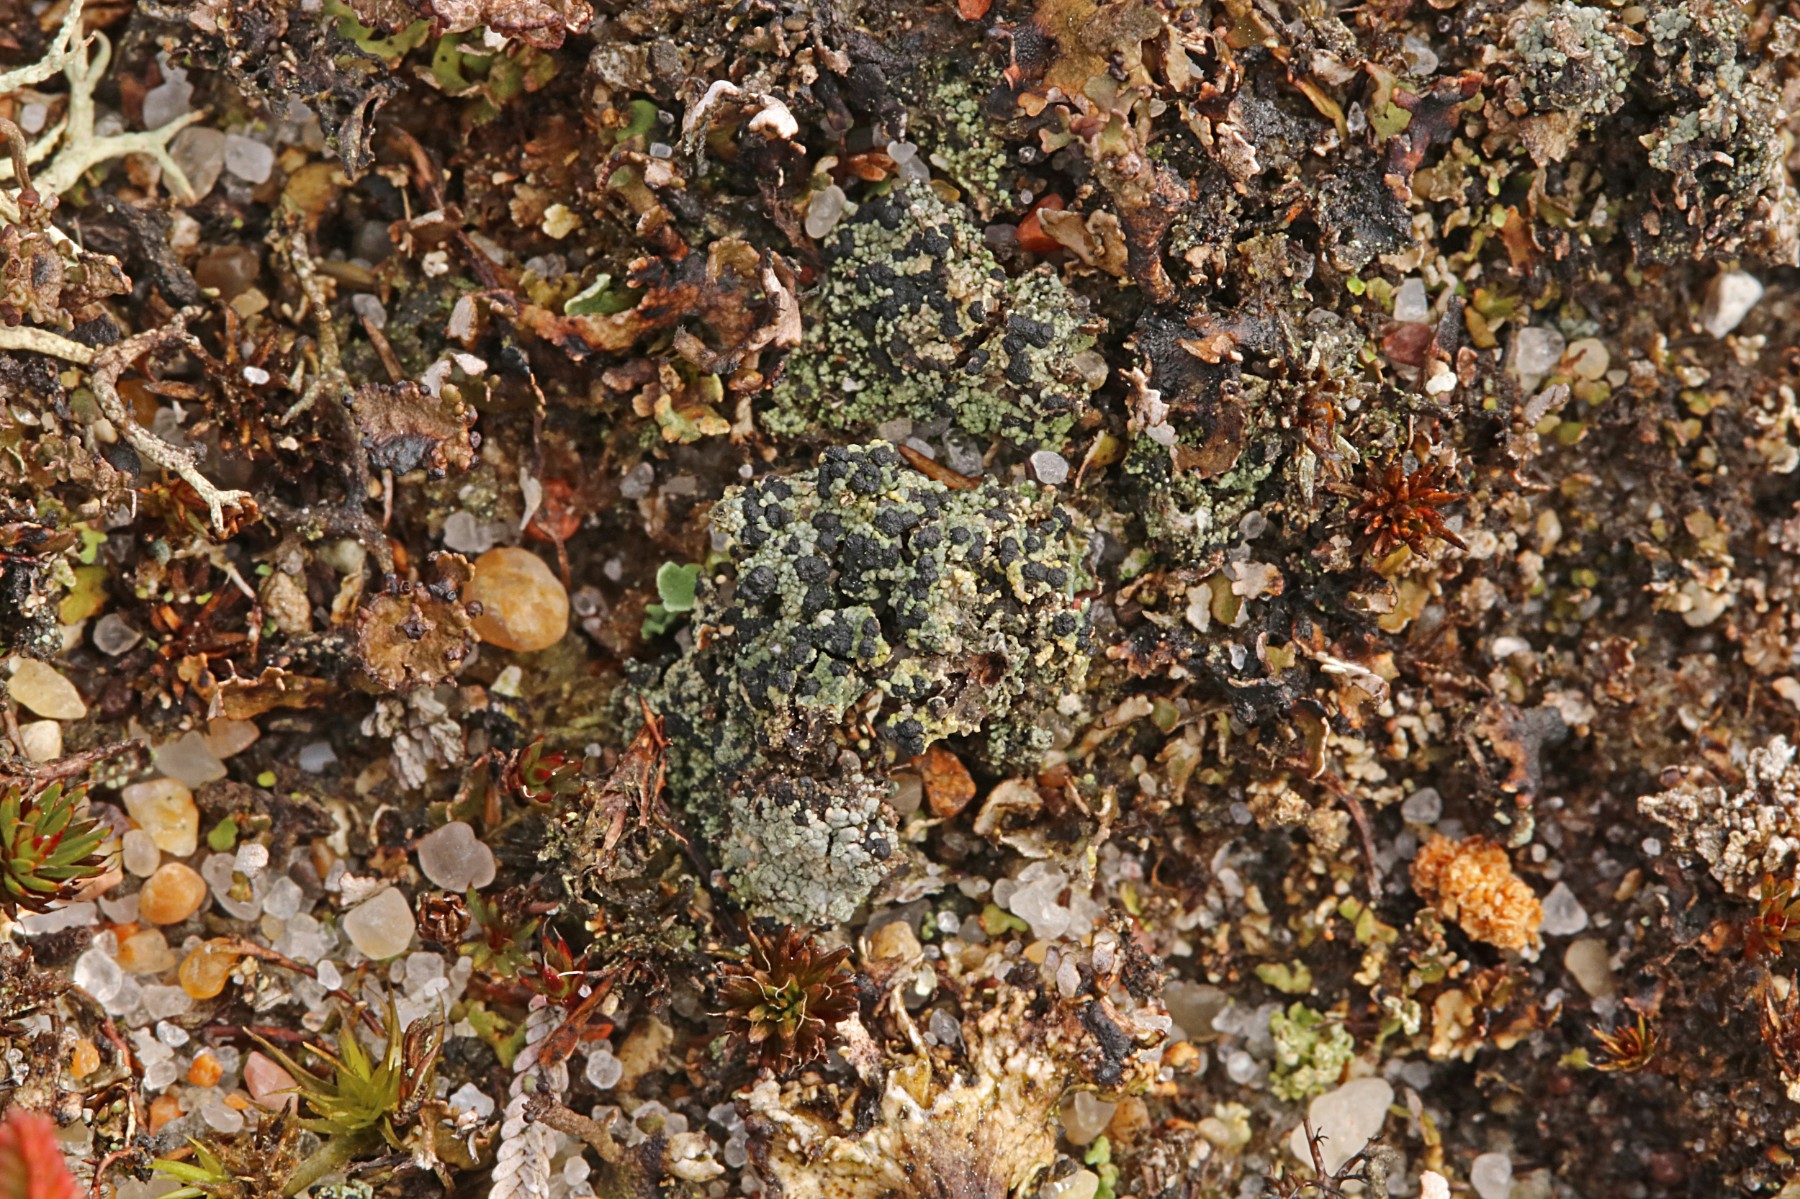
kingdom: Fungi
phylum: Ascomycota
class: Lecanoromycetes
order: Lecanorales
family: Byssolomataceae
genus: Micarea
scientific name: Micarea lignaria
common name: tørve-knaplav
